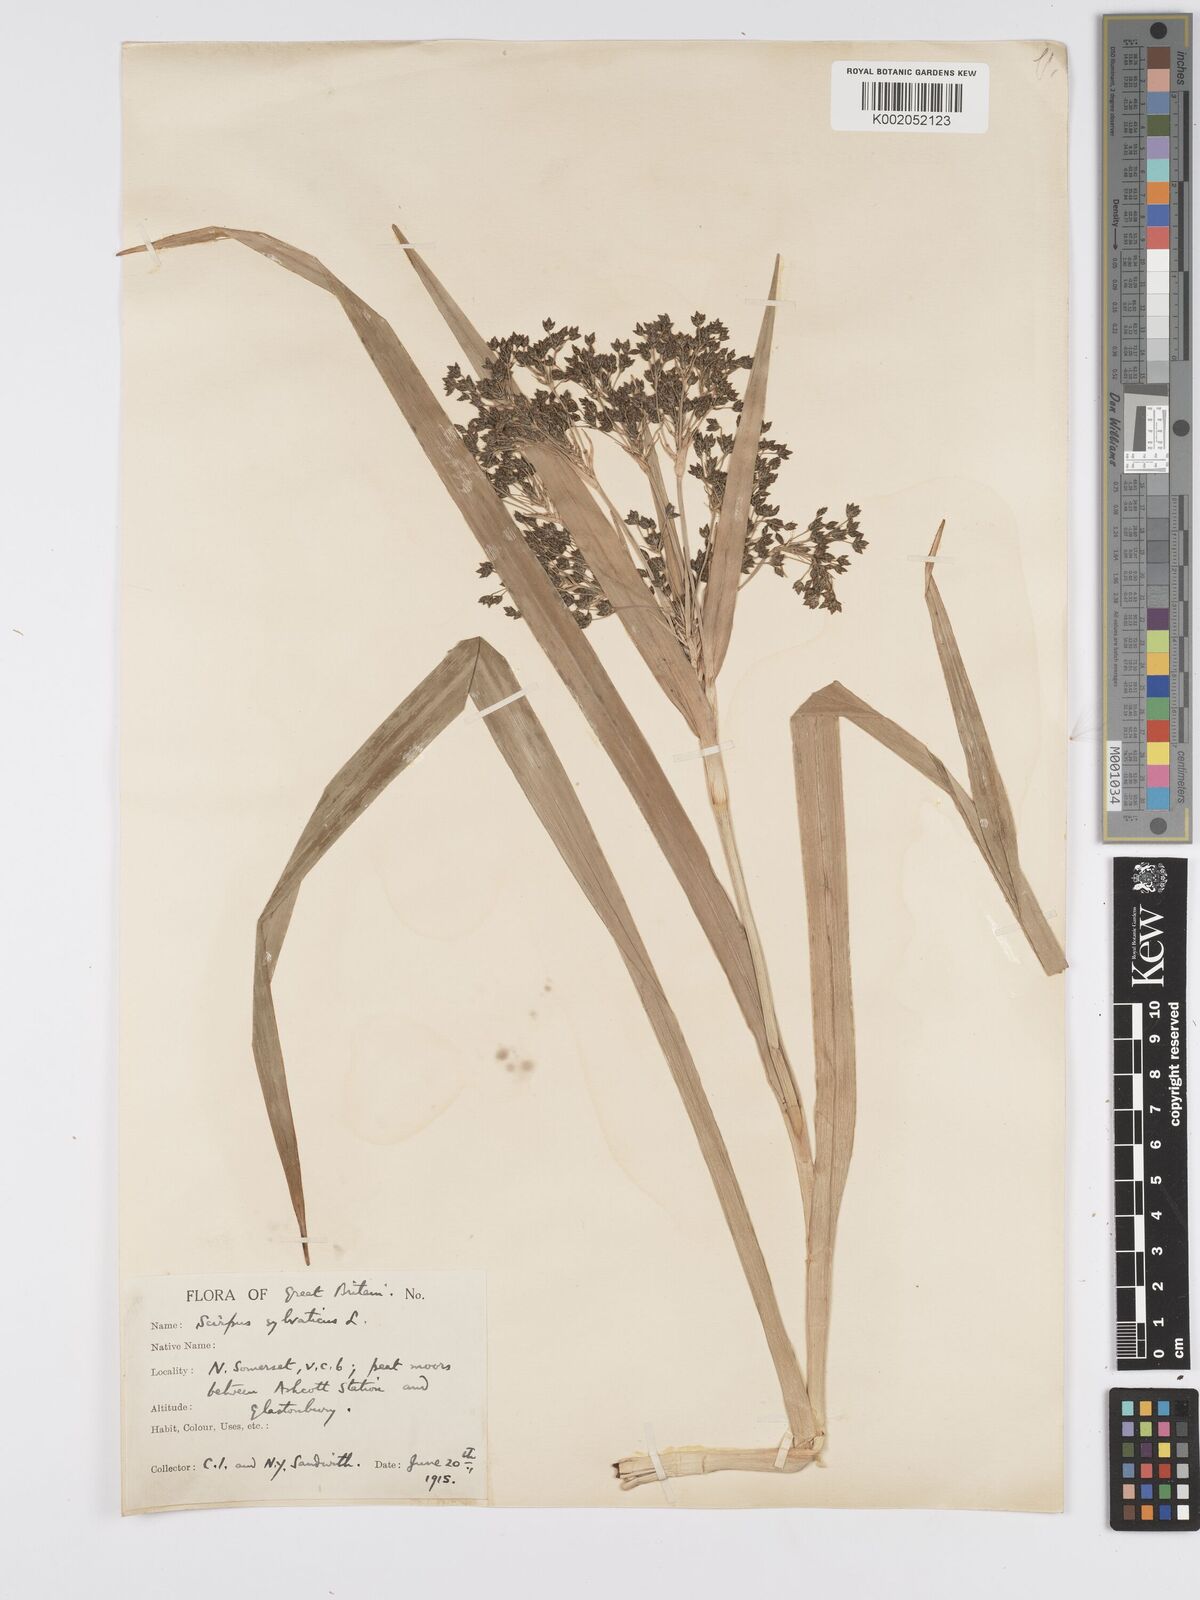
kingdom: Plantae
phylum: Tracheophyta
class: Liliopsida
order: Poales
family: Cyperaceae
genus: Scirpus
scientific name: Scirpus sylvaticus
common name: Wood club-rush
